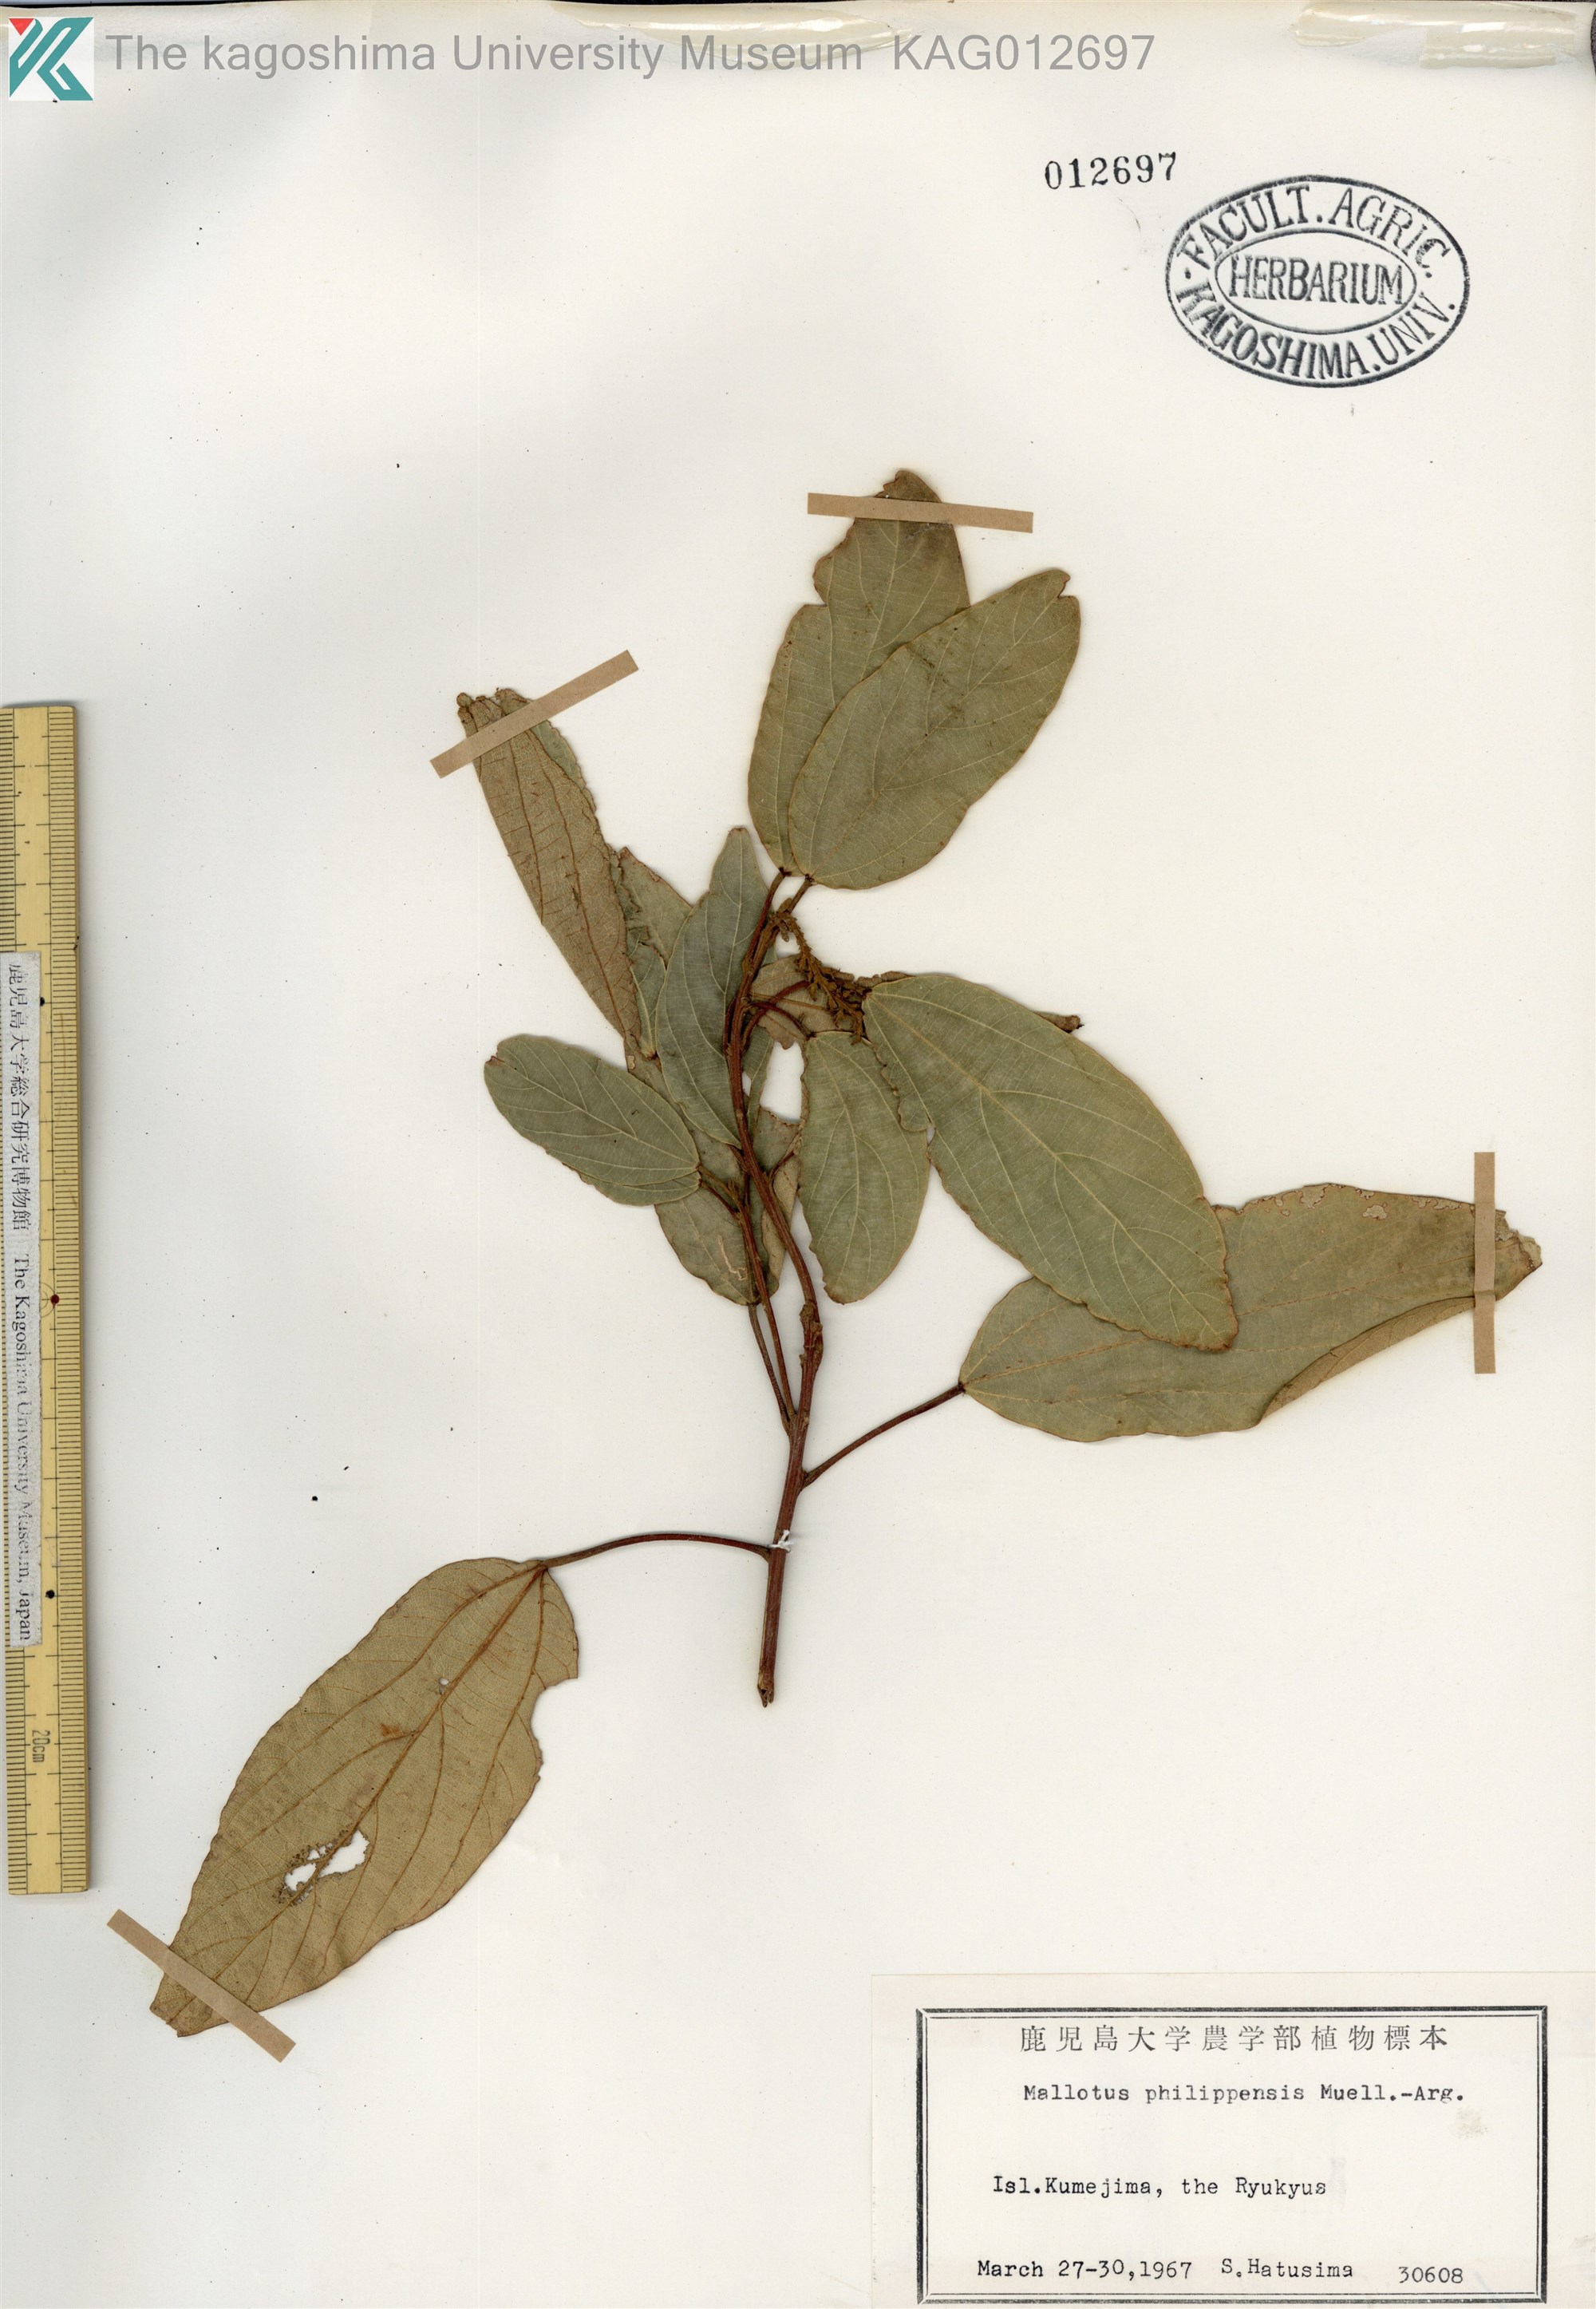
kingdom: Plantae
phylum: Tracheophyta
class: Magnoliopsida
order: Malpighiales
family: Euphorbiaceae
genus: Mallotus
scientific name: Mallotus philippensis
